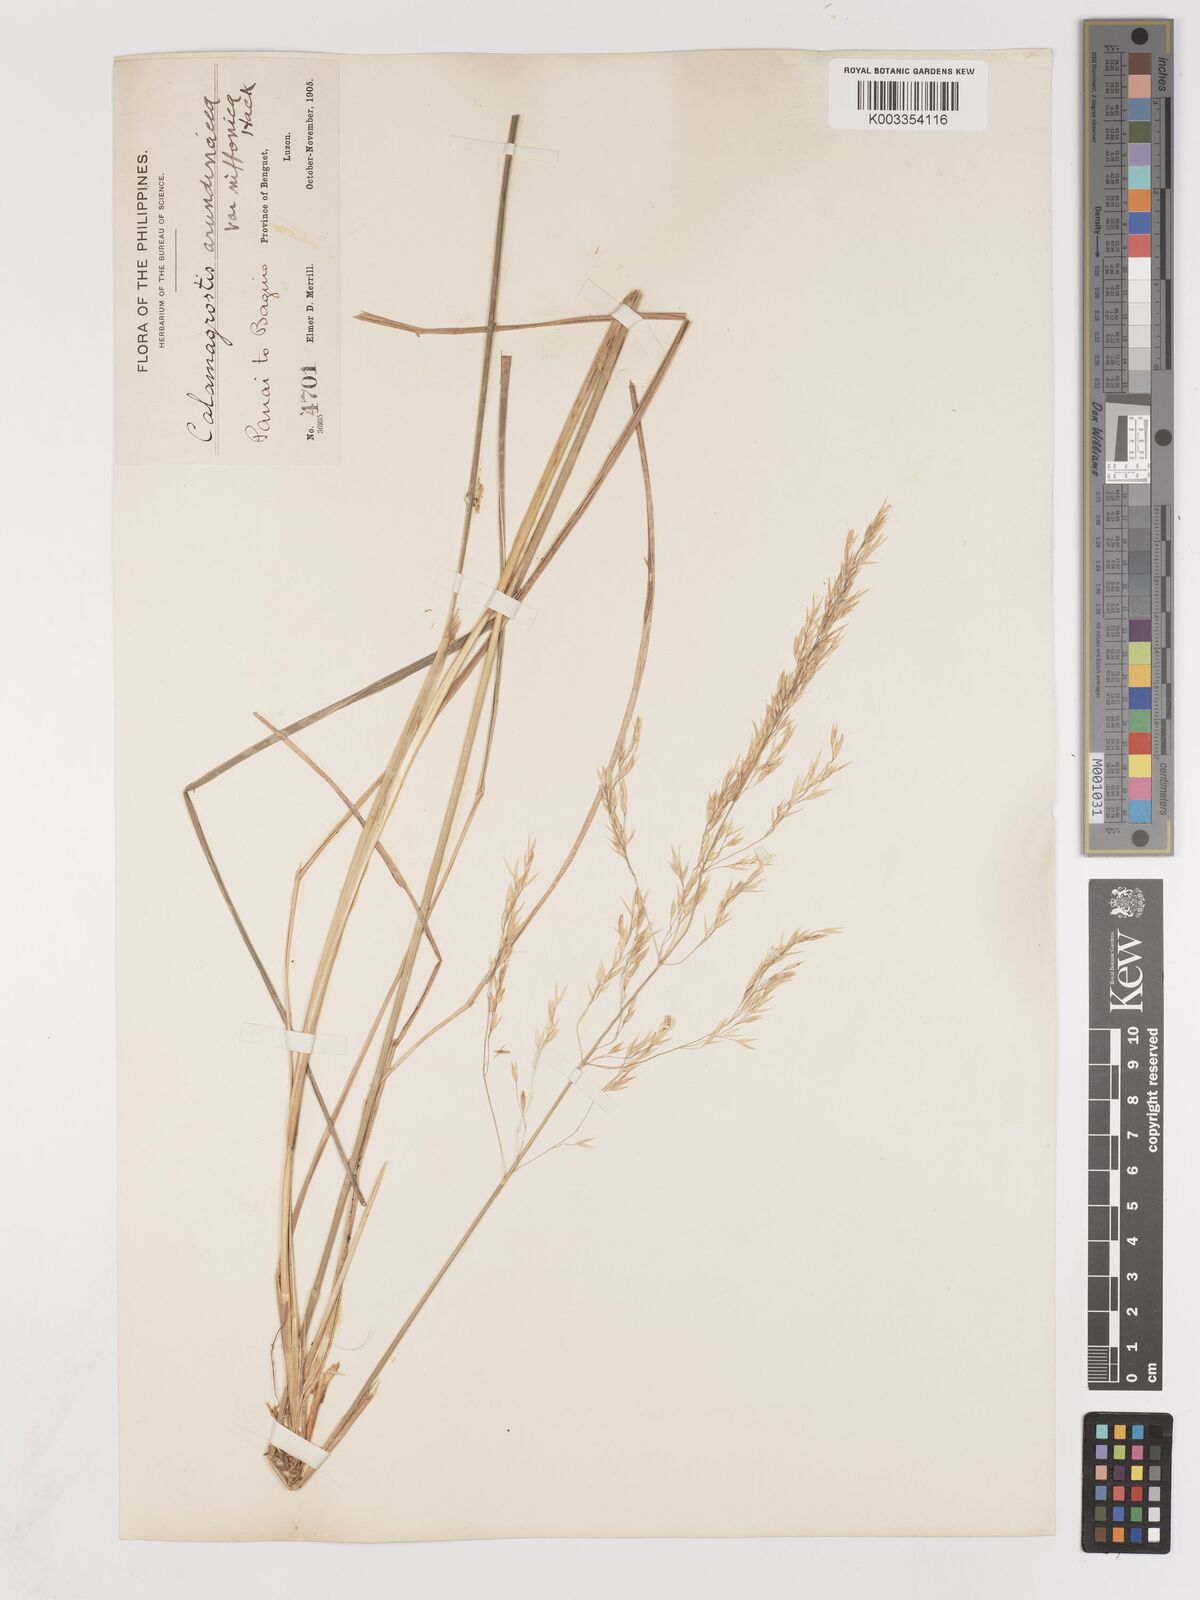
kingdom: Plantae
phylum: Tracheophyta
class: Liliopsida
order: Poales
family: Poaceae
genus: Calamagrostis
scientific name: Calamagrostis
